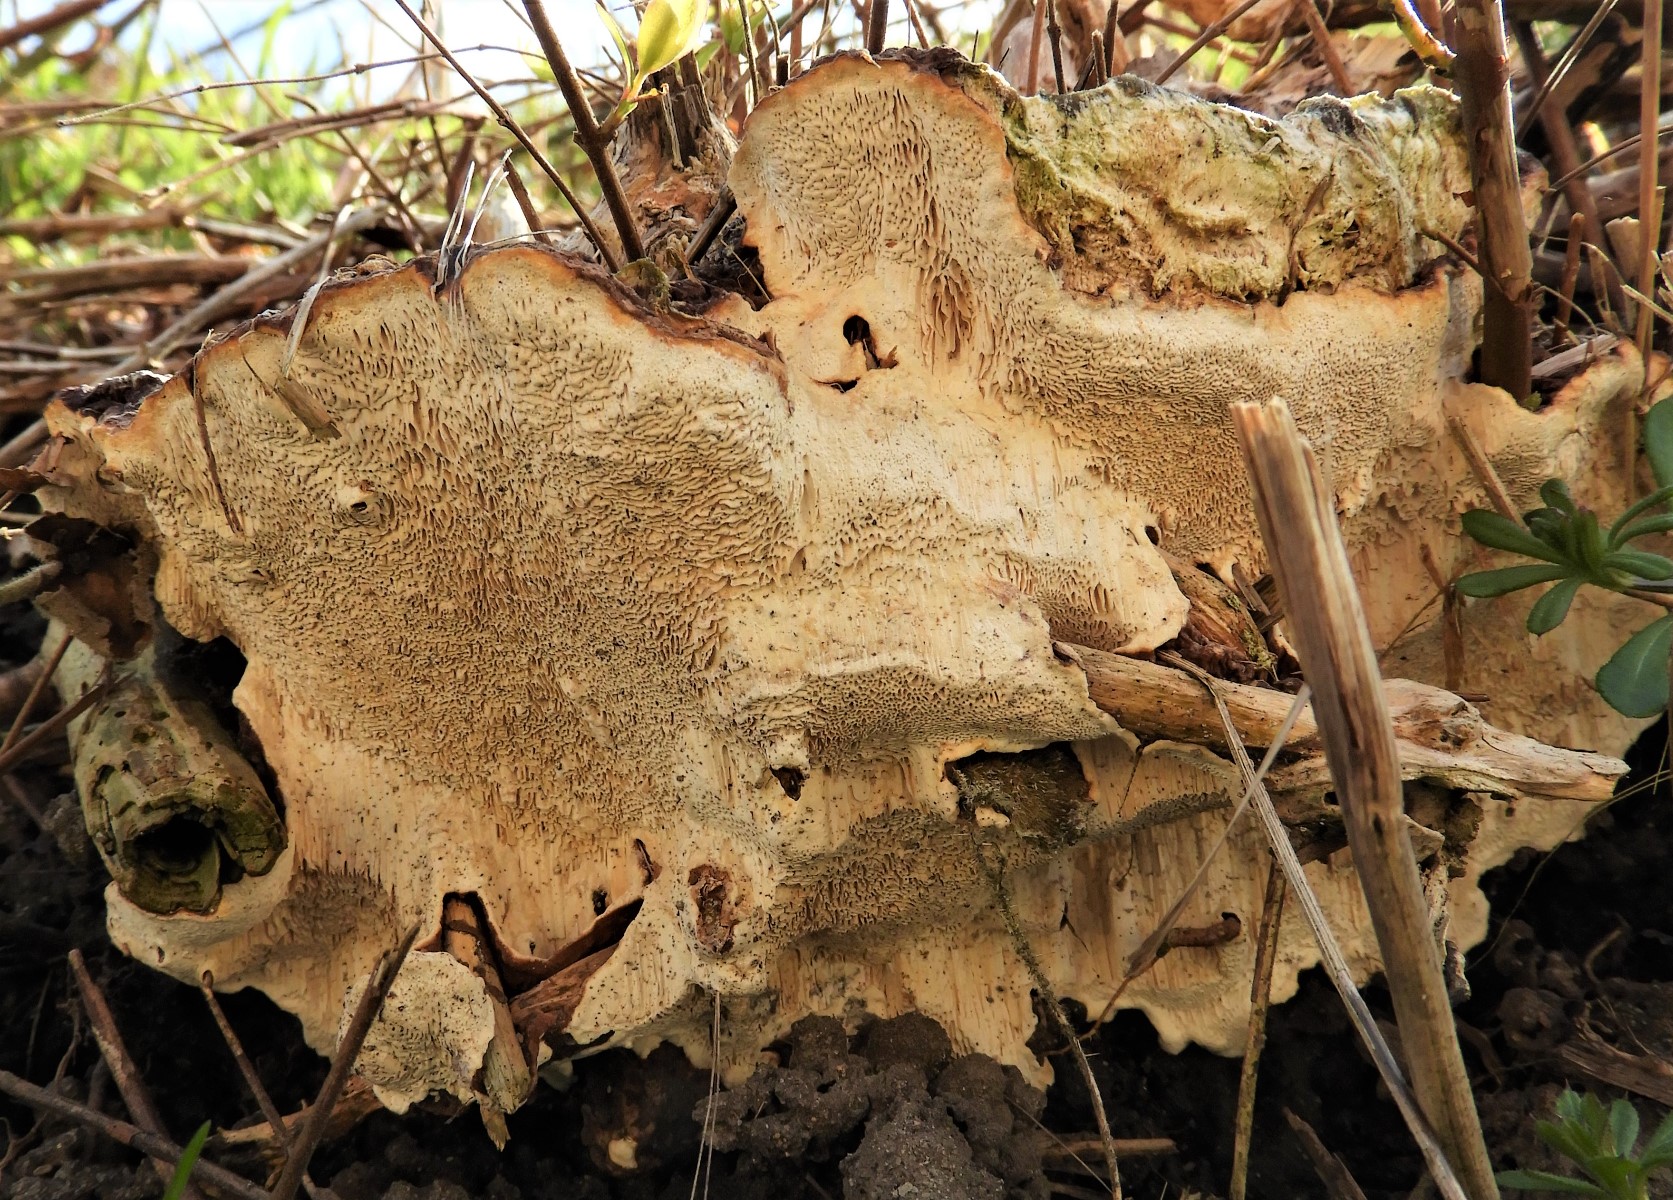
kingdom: Fungi
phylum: Basidiomycota
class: Agaricomycetes
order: Russulales
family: Bondarzewiaceae
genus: Heterobasidion
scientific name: Heterobasidion annosum
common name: almindelig rodfordærver
